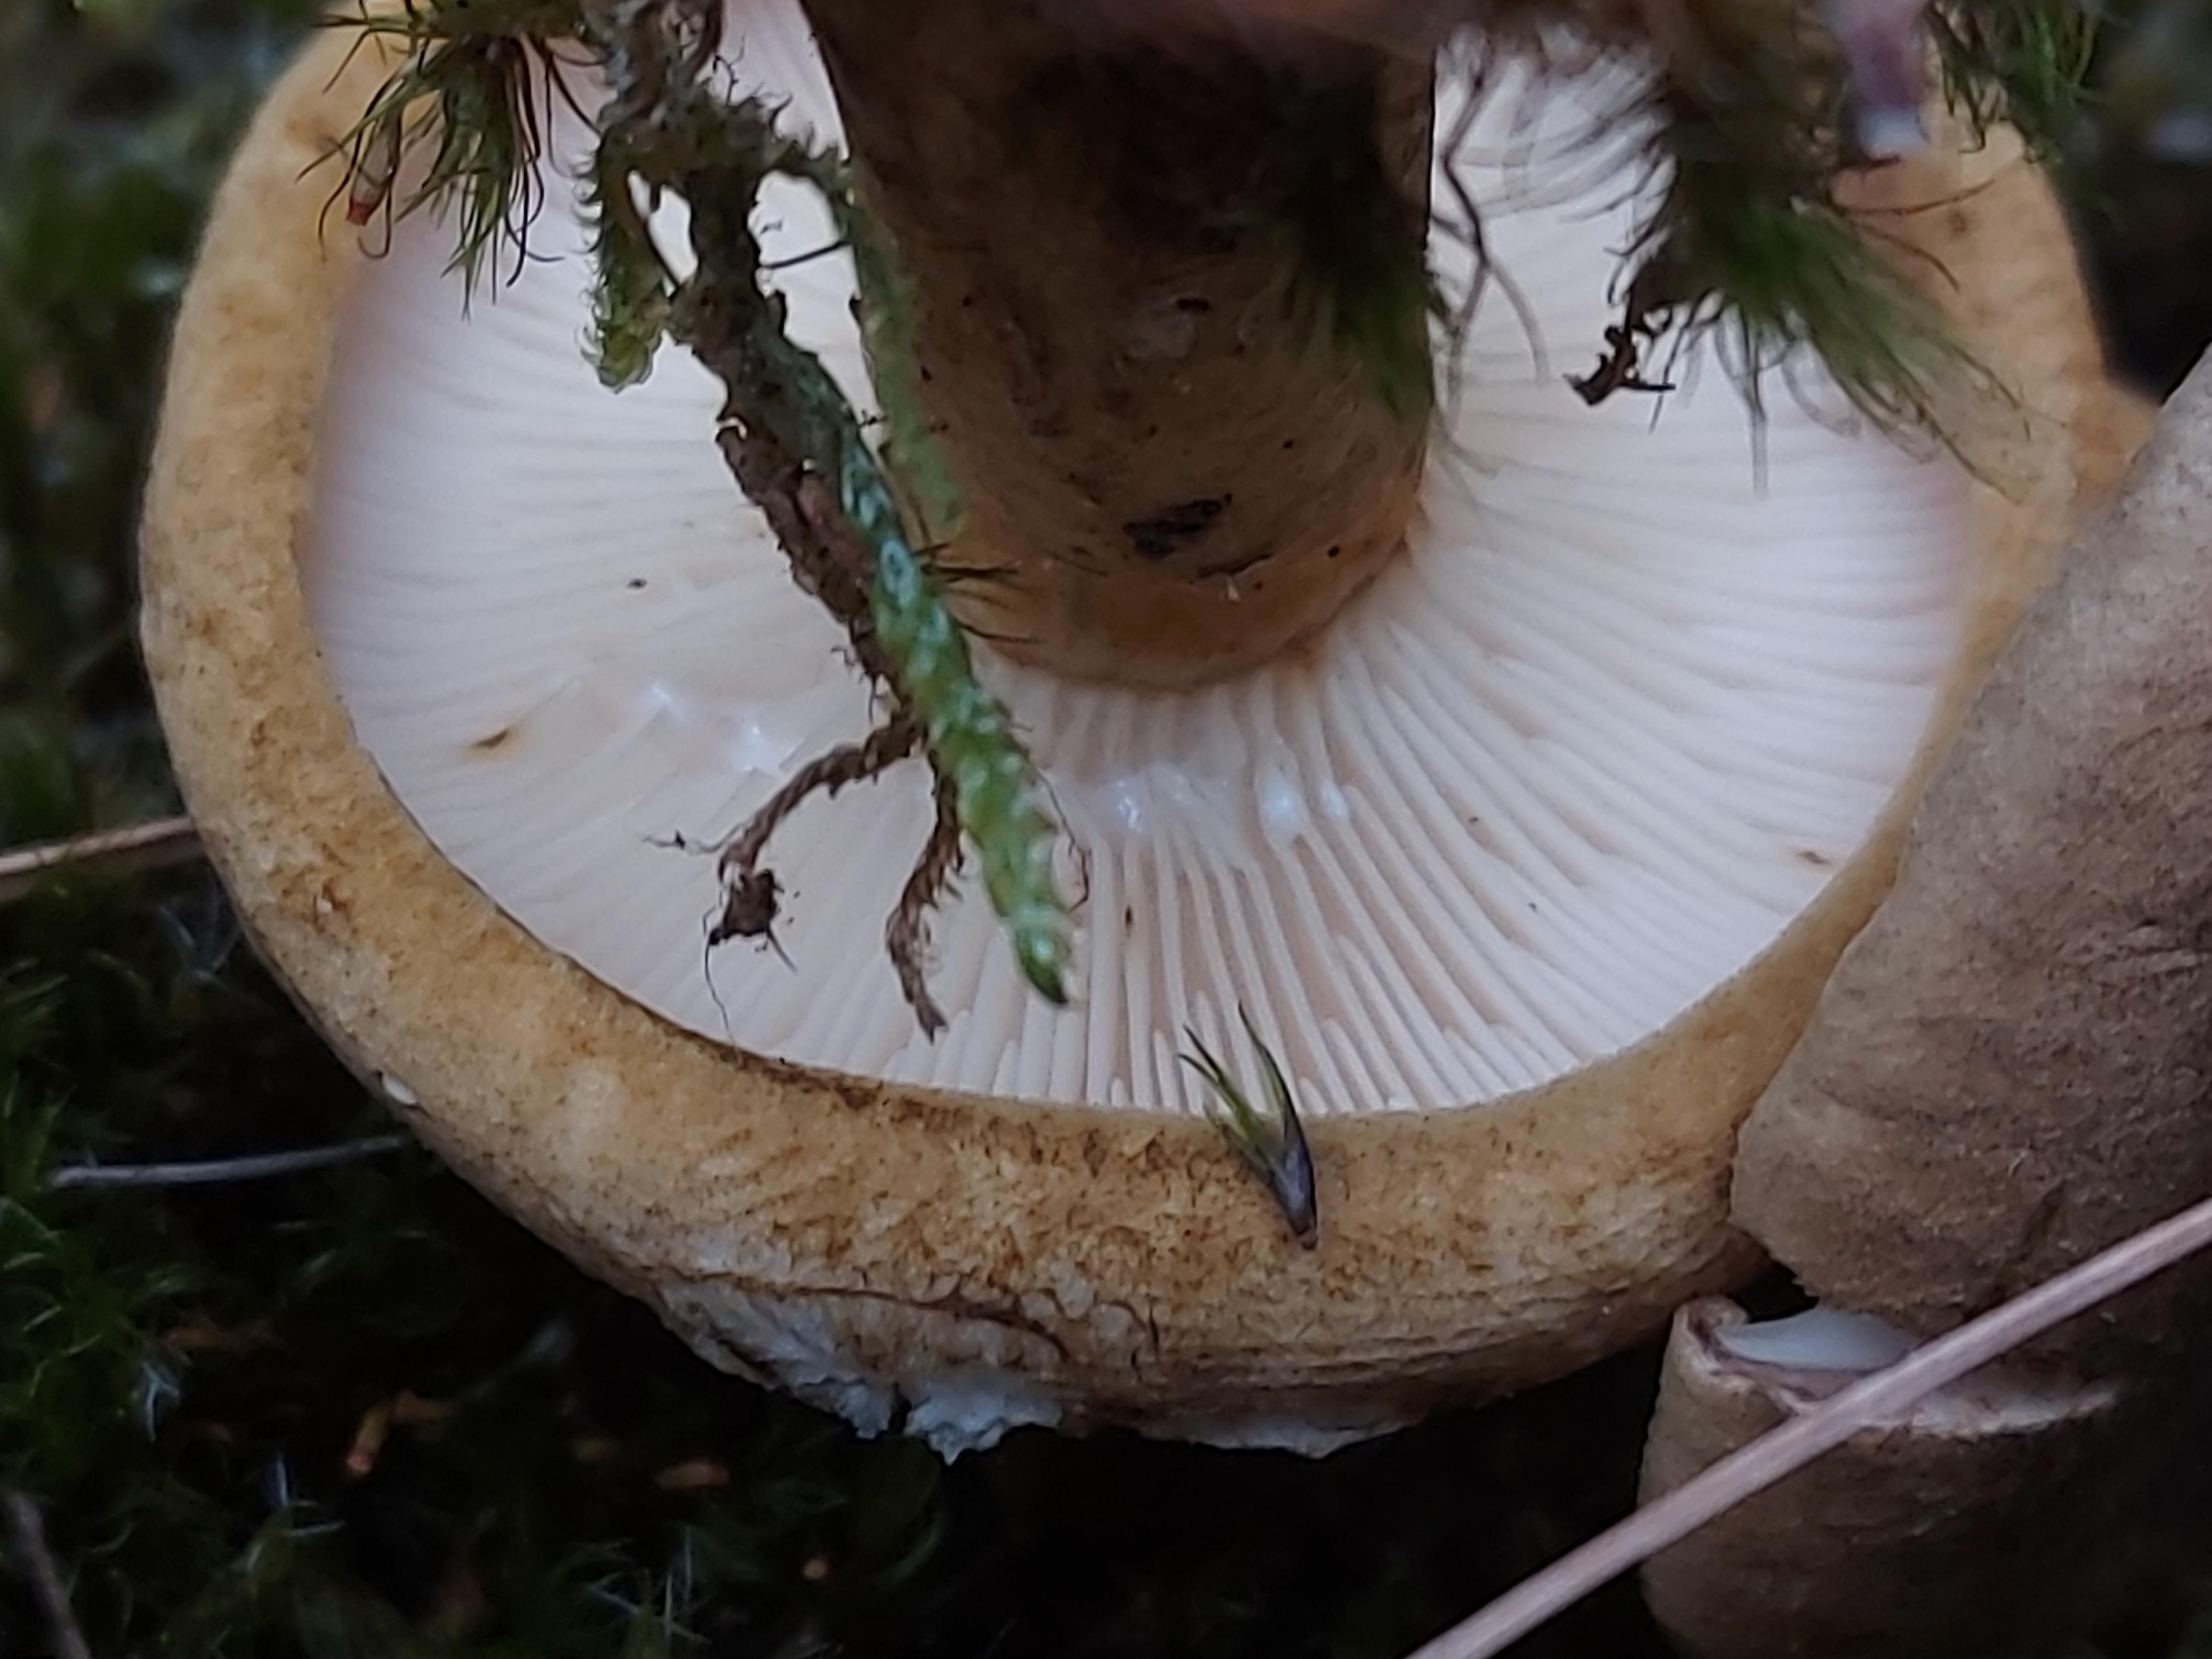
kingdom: Fungi
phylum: Basidiomycota
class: Agaricomycetes
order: Russulales
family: Russulaceae
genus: Lactarius
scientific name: Lactarius necator
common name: manddraber-mælkehat
